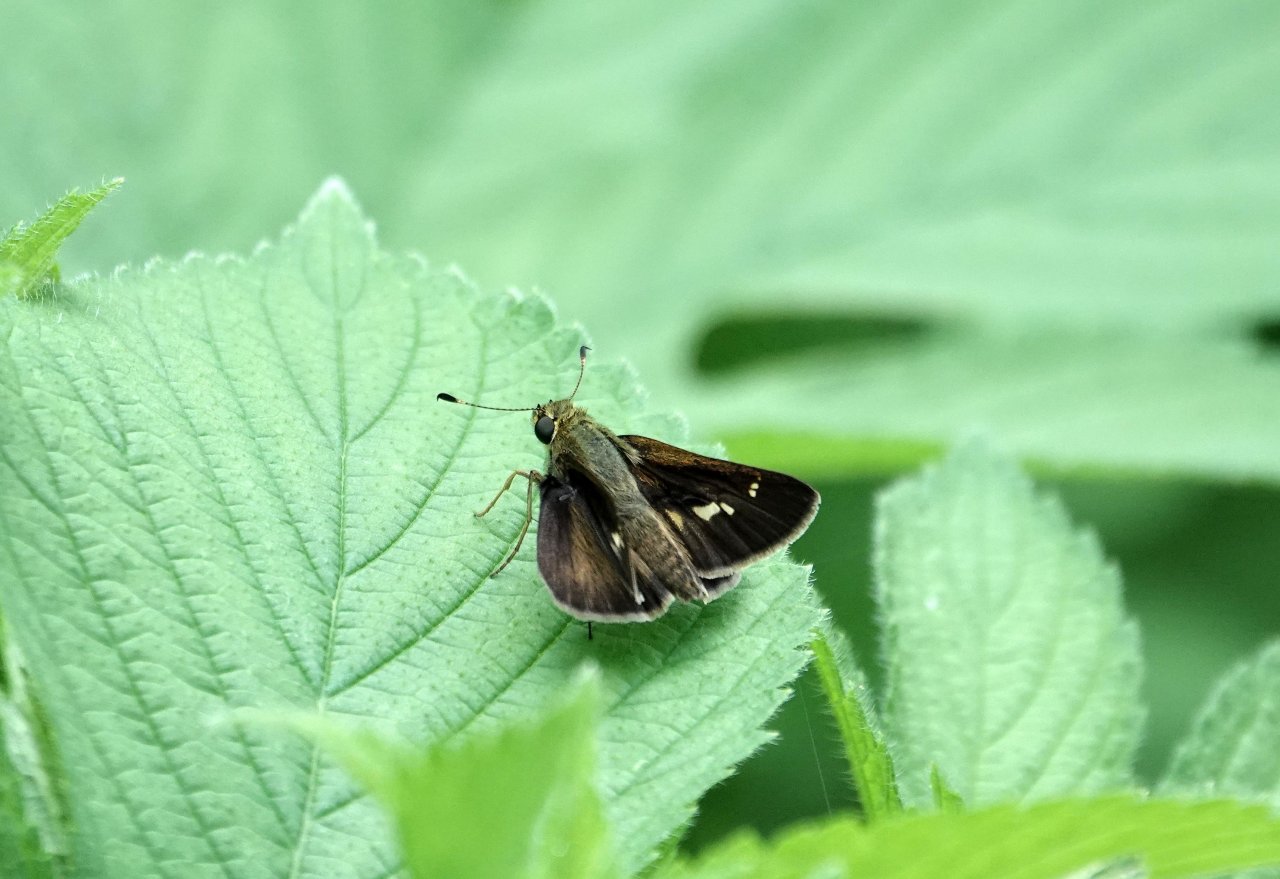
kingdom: Animalia
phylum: Arthropoda
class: Insecta
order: Lepidoptera
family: Hesperiidae
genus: Vernia
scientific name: Vernia verna
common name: Little Glassywing
